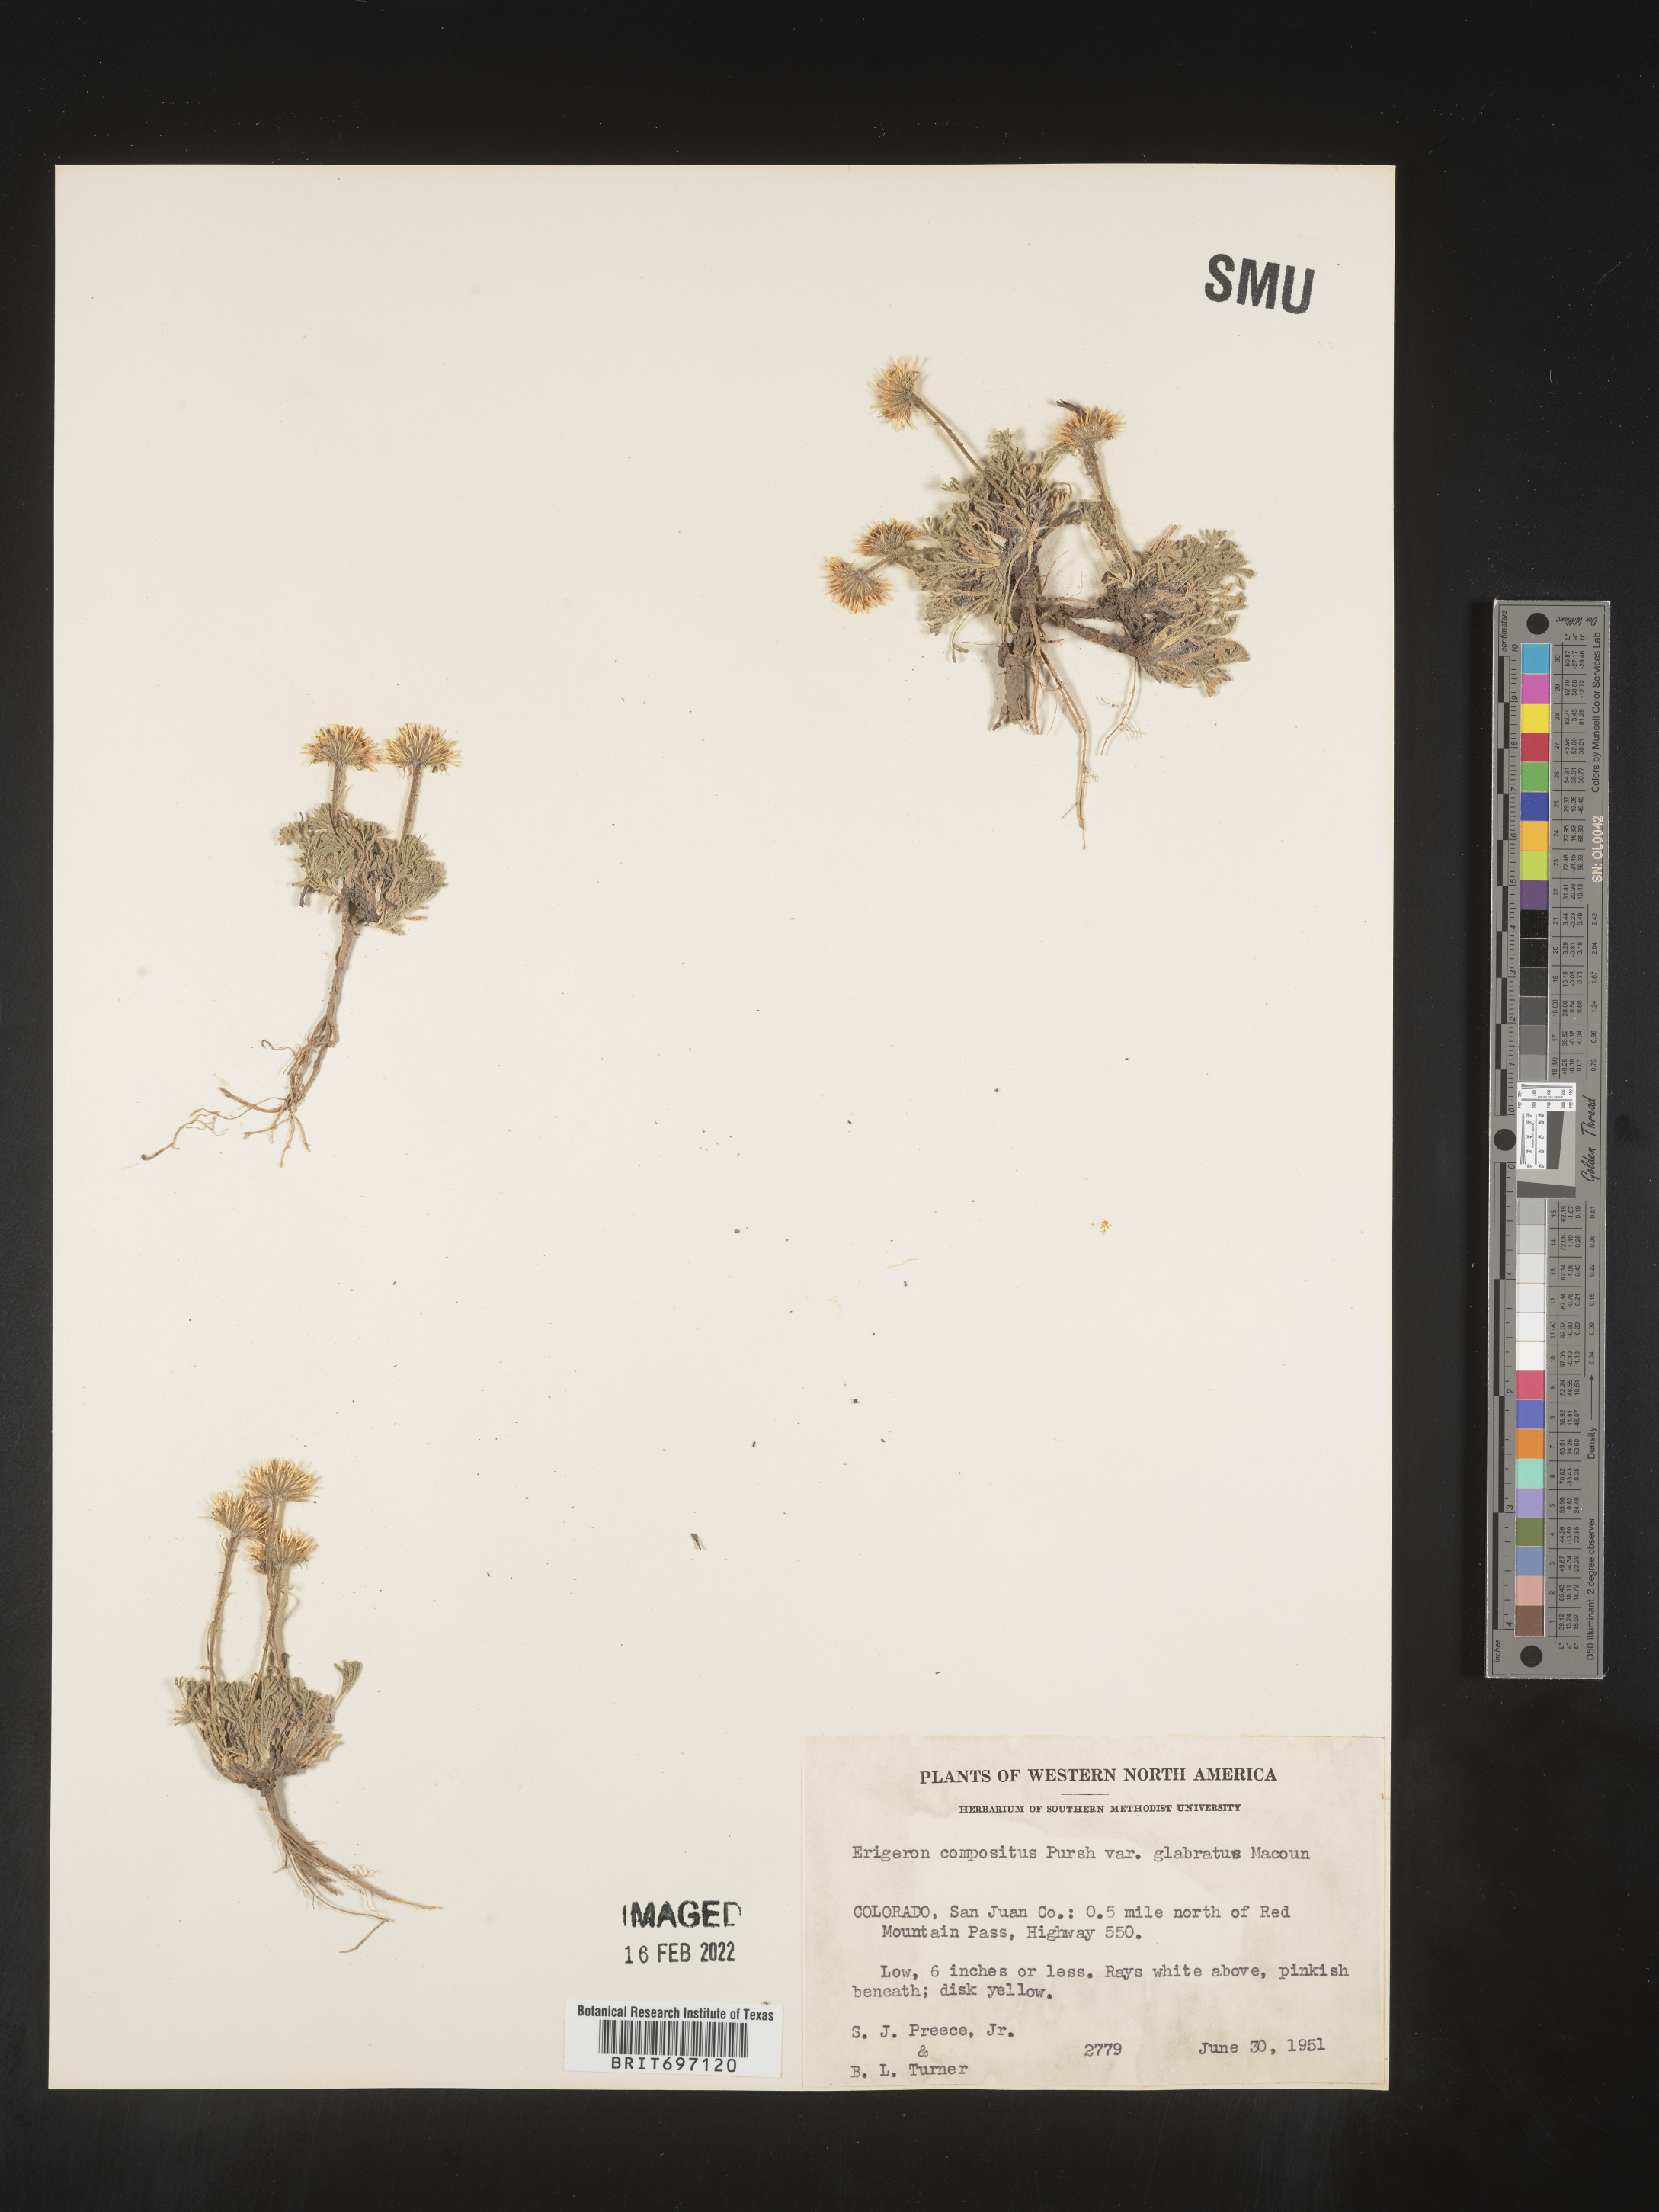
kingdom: Plantae
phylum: Tracheophyta
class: Magnoliopsida
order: Asterales
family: Asteraceae
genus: Erigeron
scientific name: Erigeron compositus
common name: Dwarf mountain fleabane
